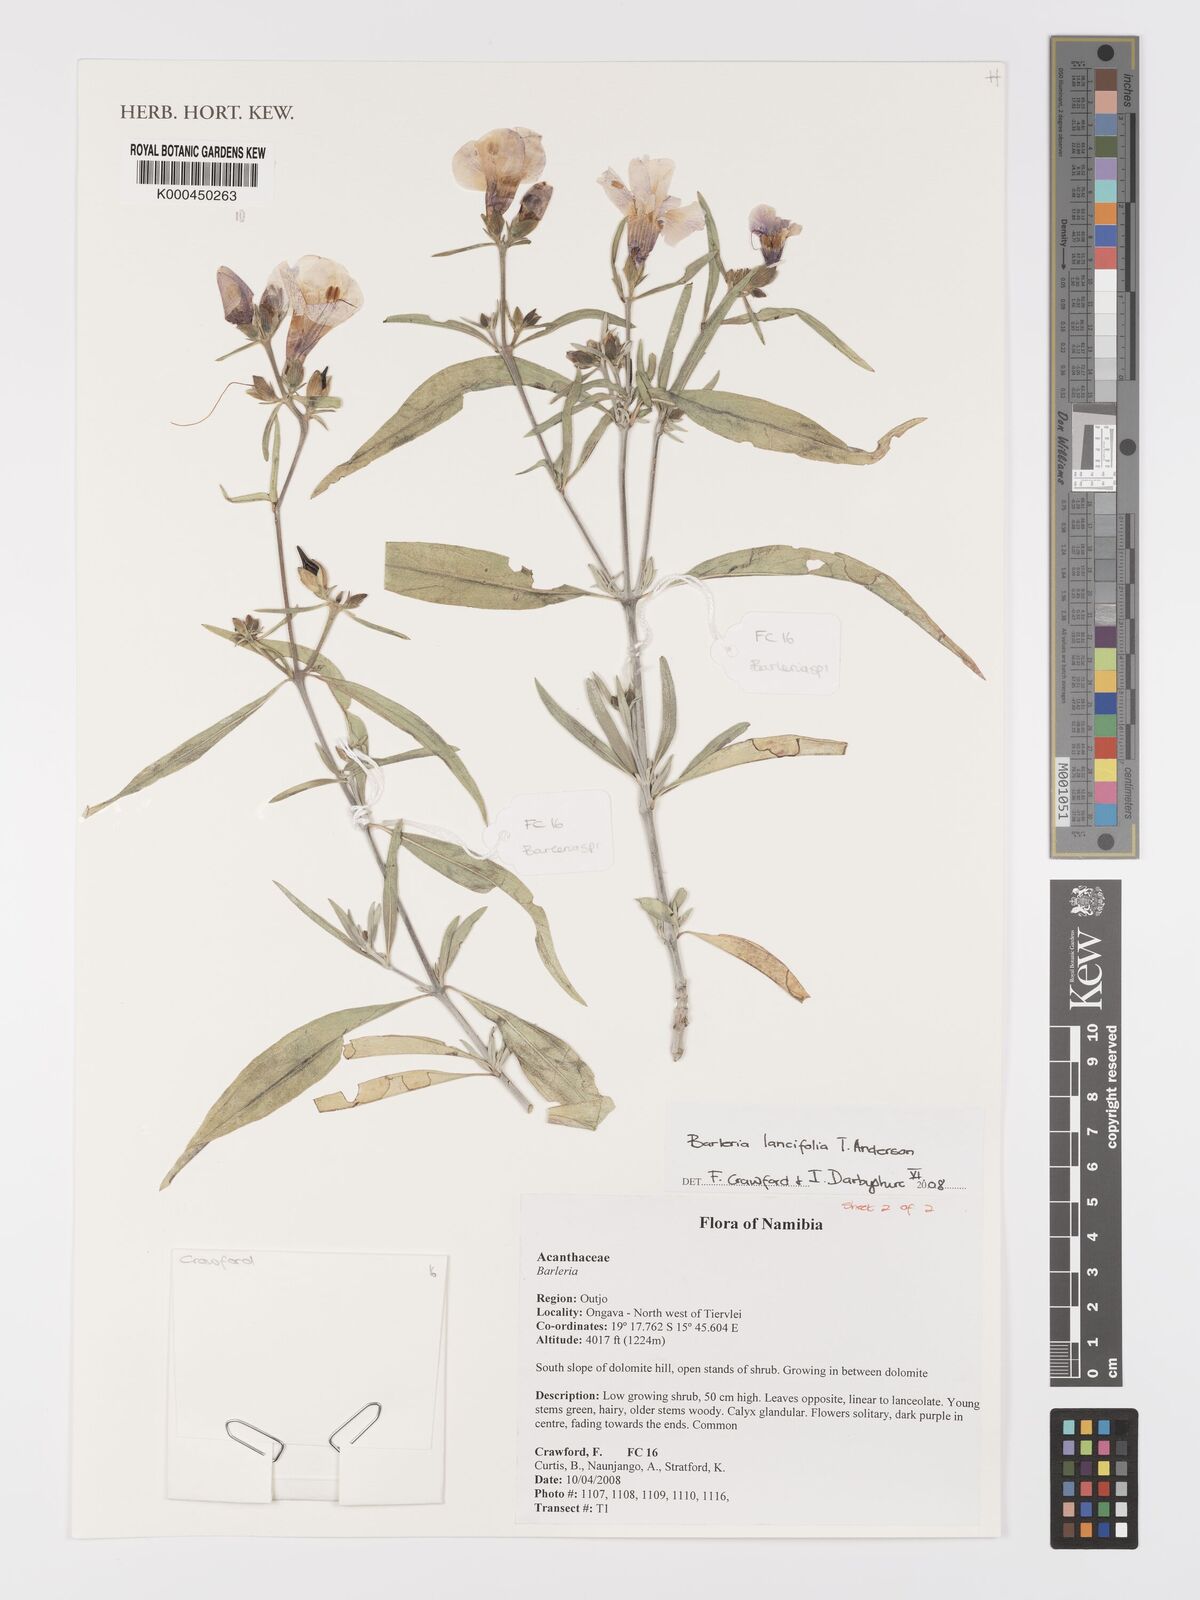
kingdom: Plantae
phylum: Tracheophyta
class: Magnoliopsida
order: Lamiales
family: Acanthaceae
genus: Barleria
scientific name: Barleria lancifolia
